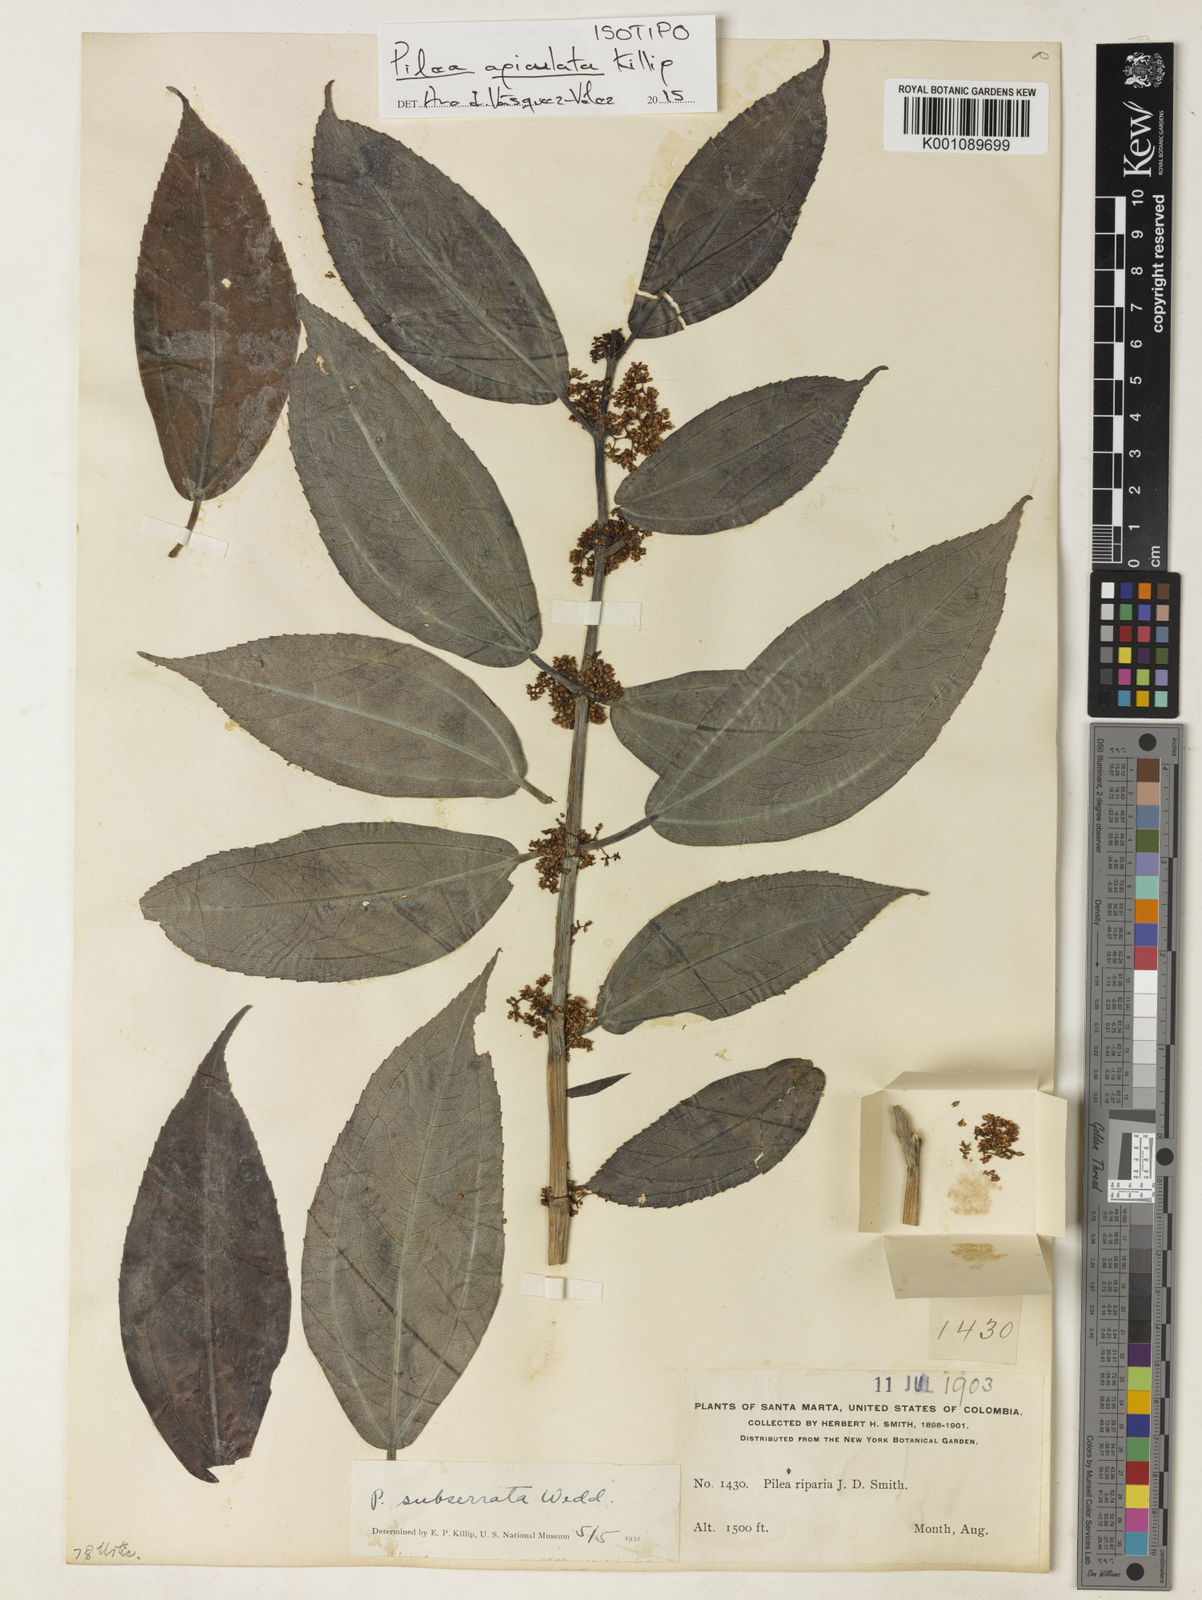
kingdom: Plantae
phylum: Tracheophyta
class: Magnoliopsida
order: Rosales
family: Urticaceae
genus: Pilea
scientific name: Pilea apiculata
